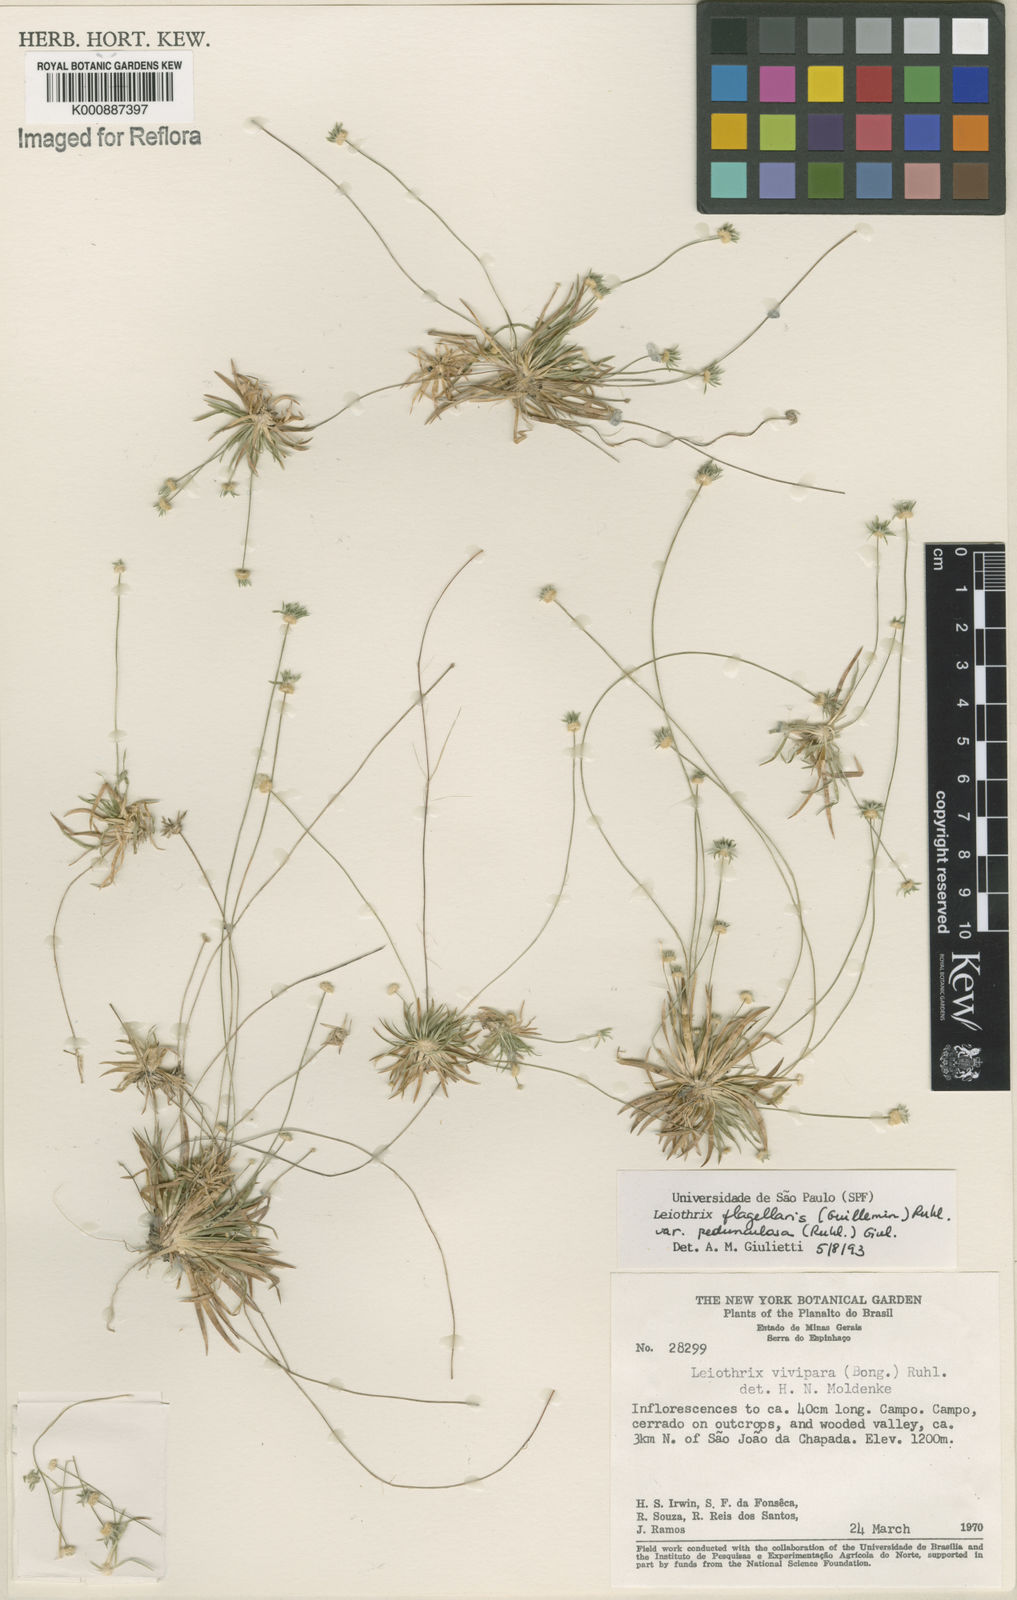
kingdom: Plantae
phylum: Tracheophyta
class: Liliopsida
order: Poales
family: Eriocaulaceae
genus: Leiothrix
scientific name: Leiothrix flagellaris
